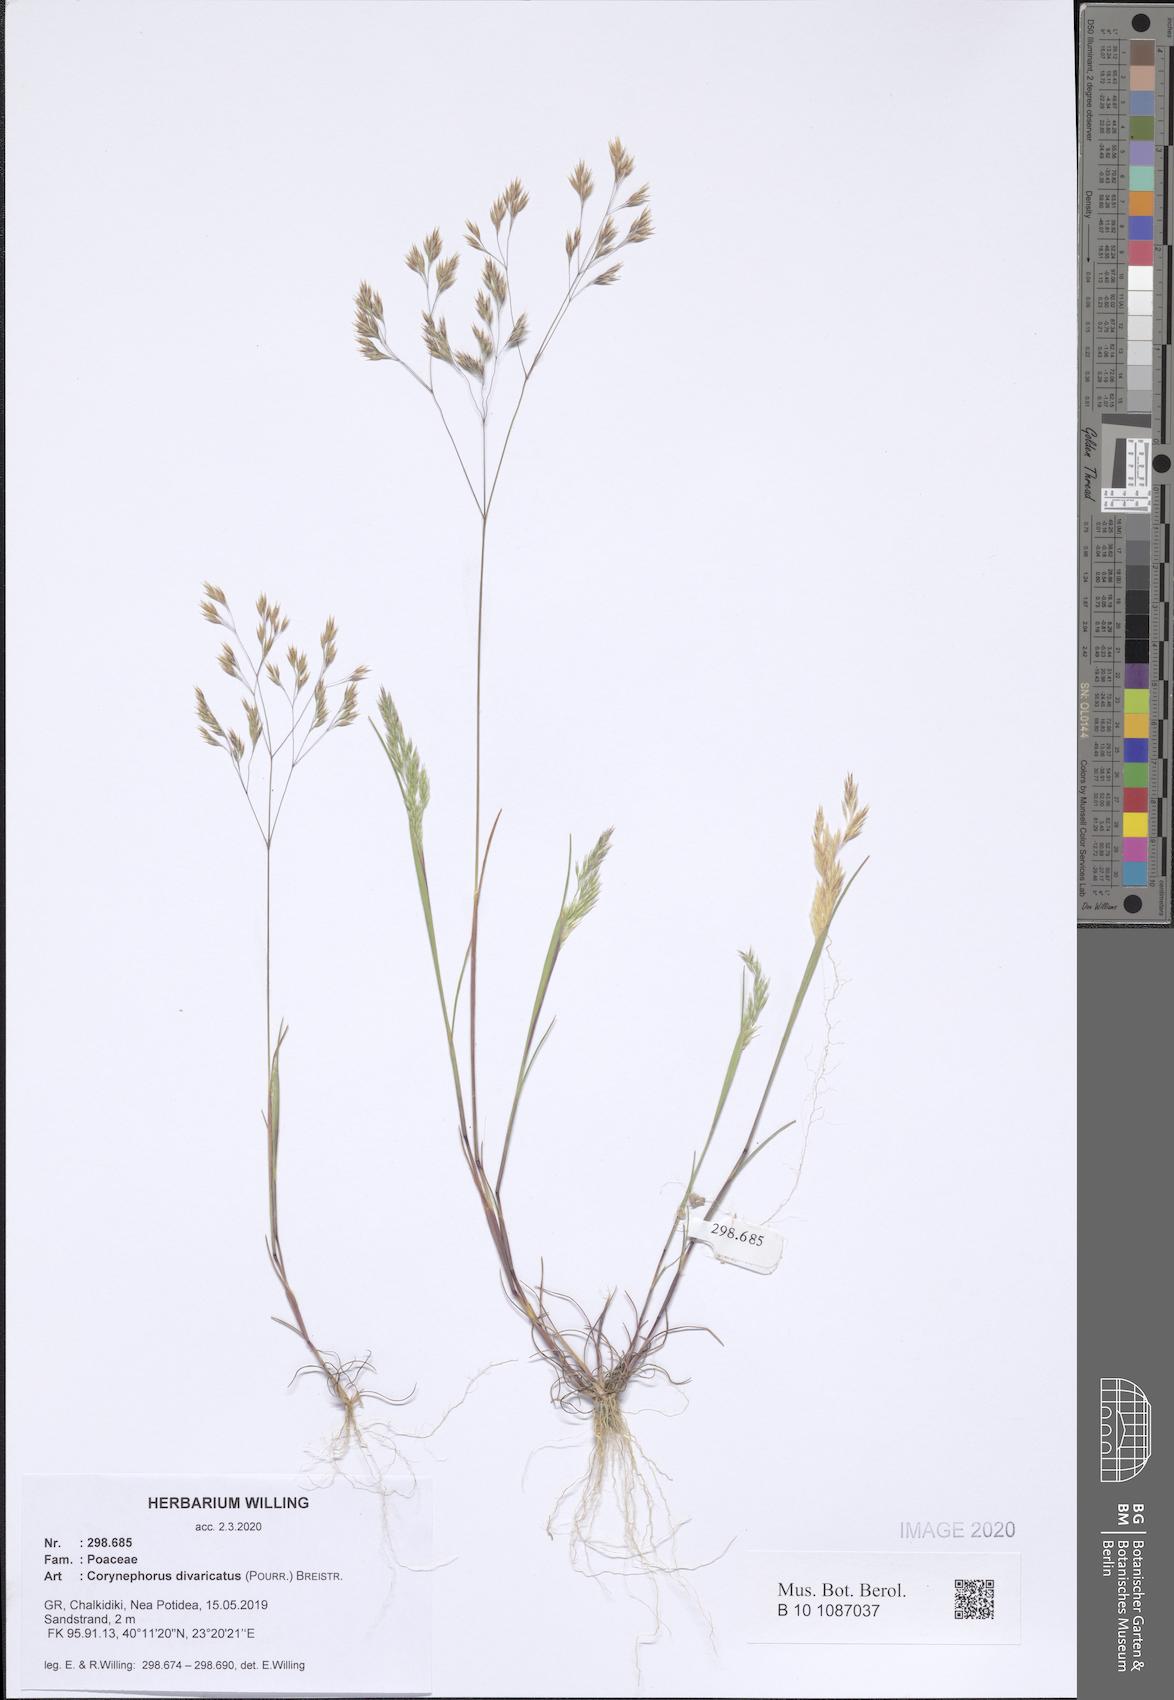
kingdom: Plantae
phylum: Tracheophyta
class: Liliopsida
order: Poales
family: Poaceae
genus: Corynephorus
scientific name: Corynephorus divaricatus
